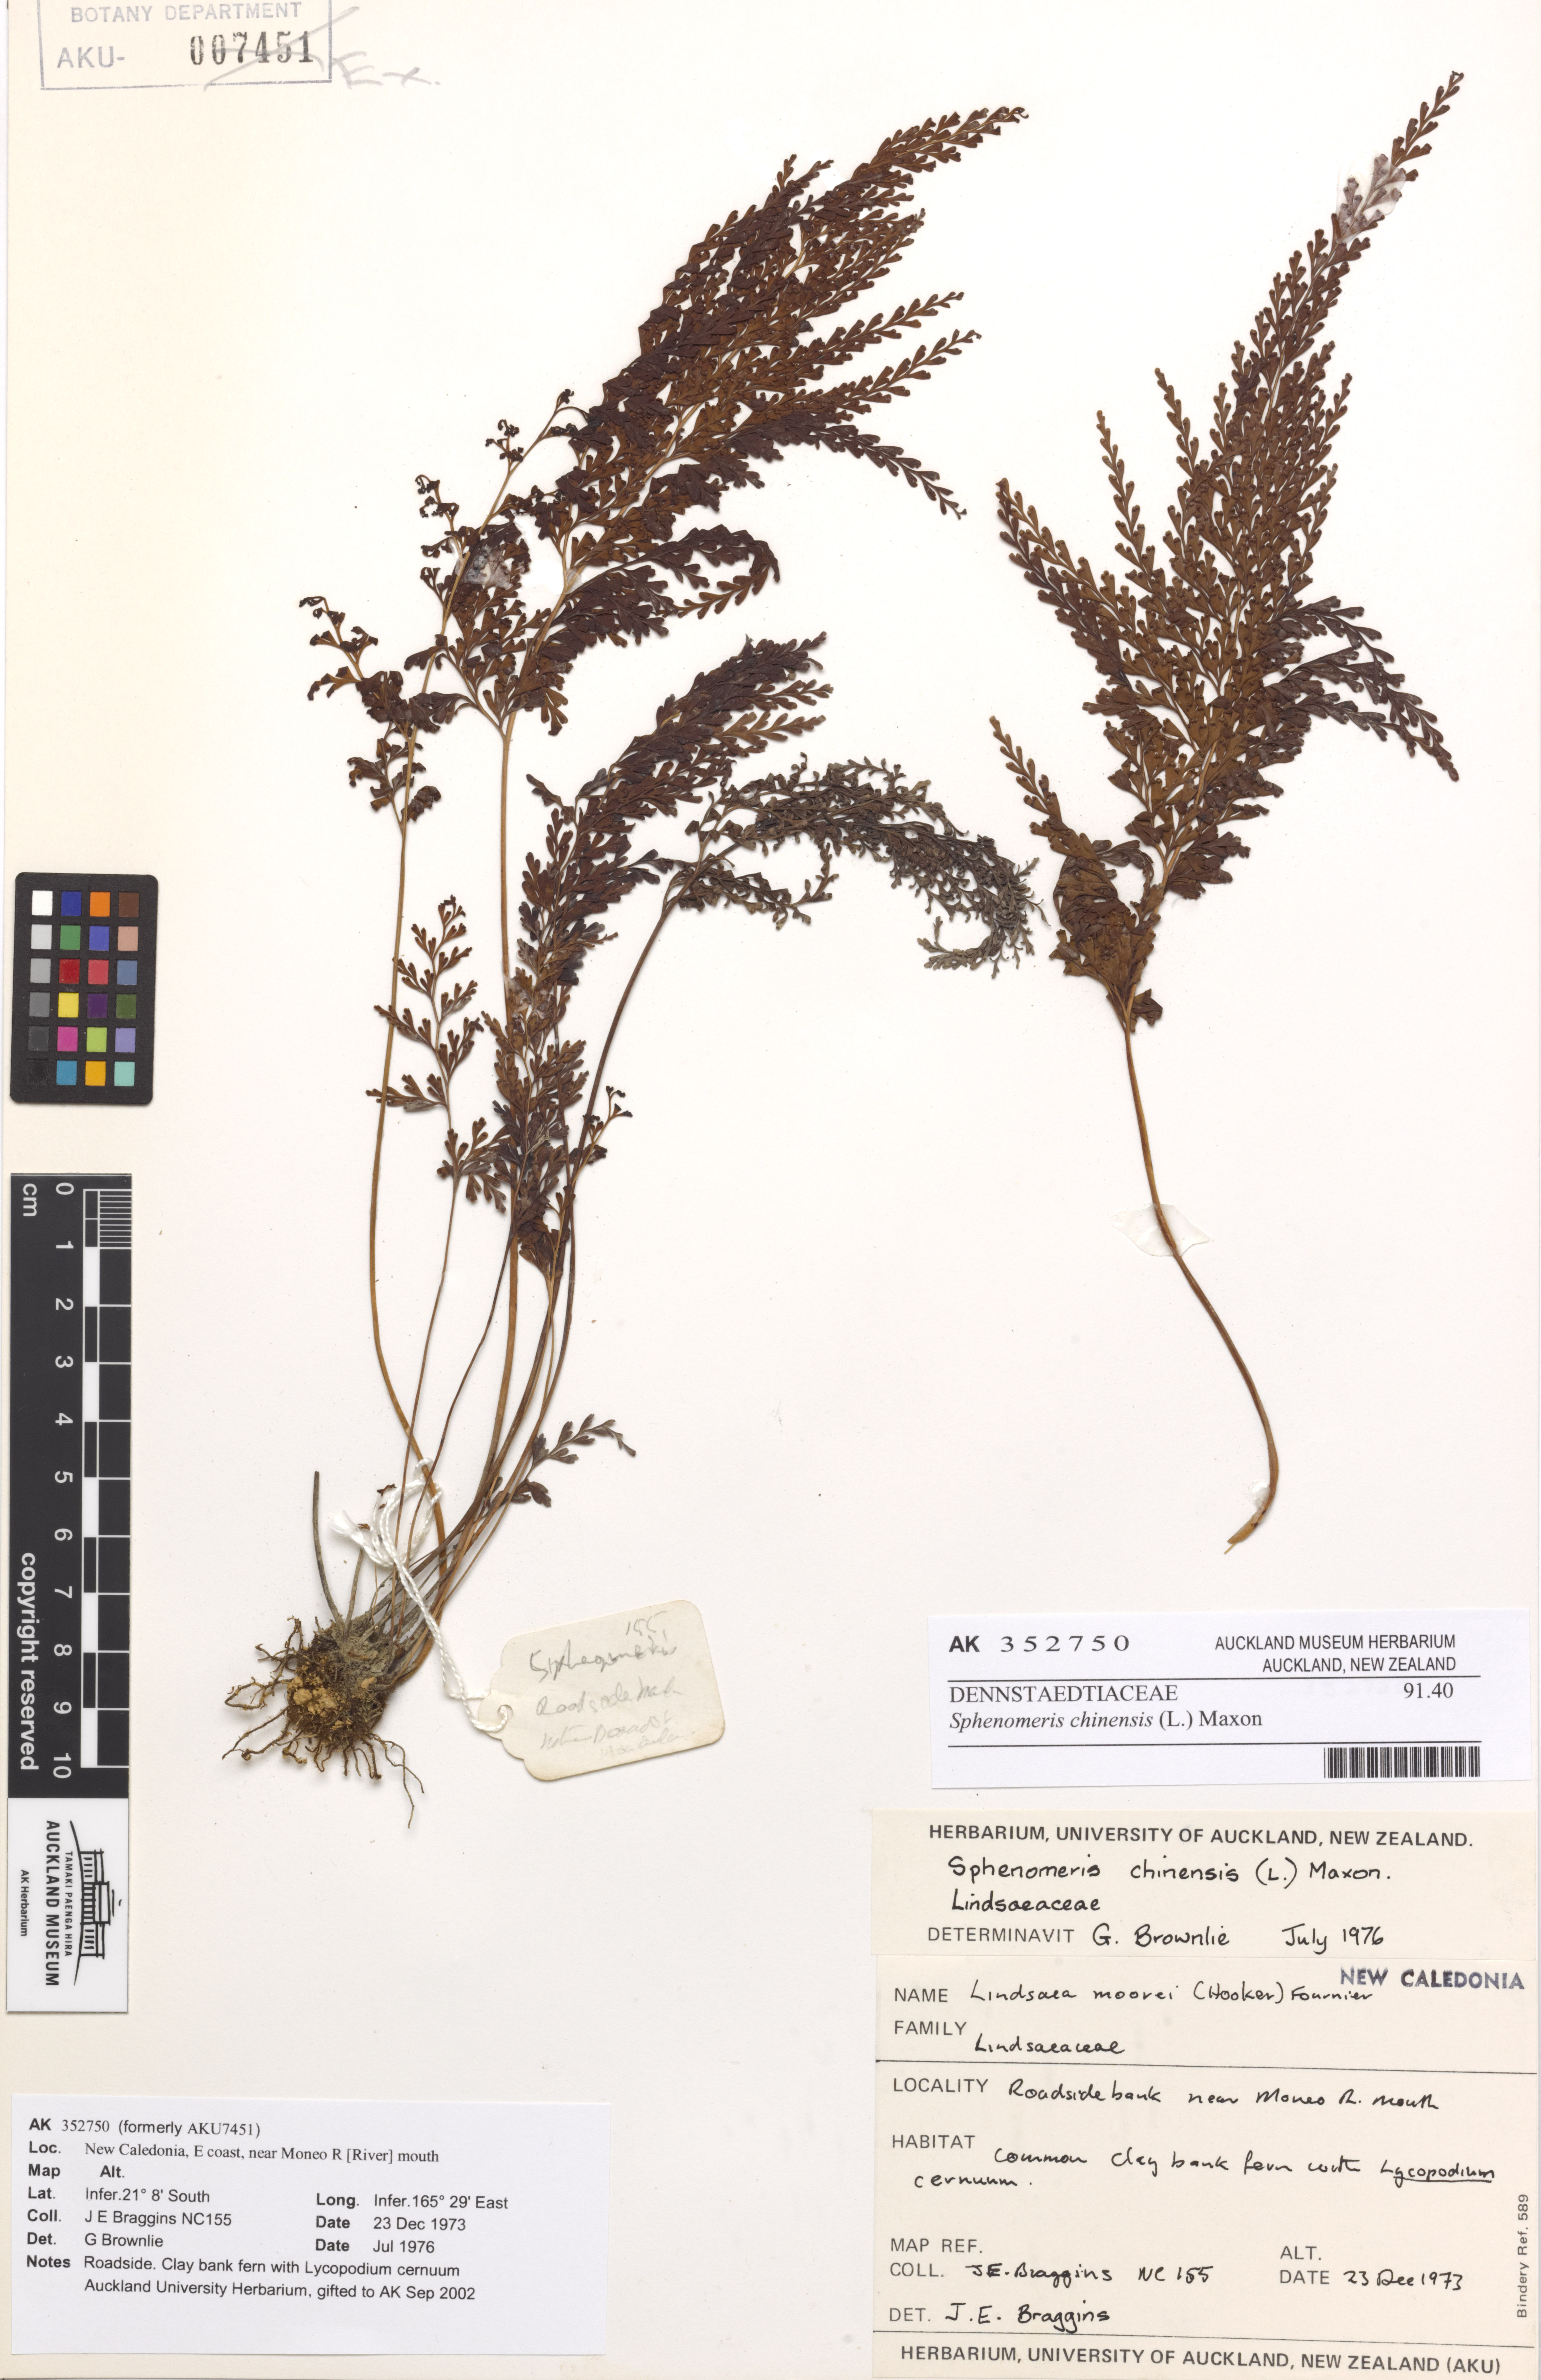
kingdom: Plantae
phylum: Tracheophyta
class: Polypodiopsida
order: Polypodiales
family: Lindsaeaceae
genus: Odontosoria
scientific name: Odontosoria chinensis
